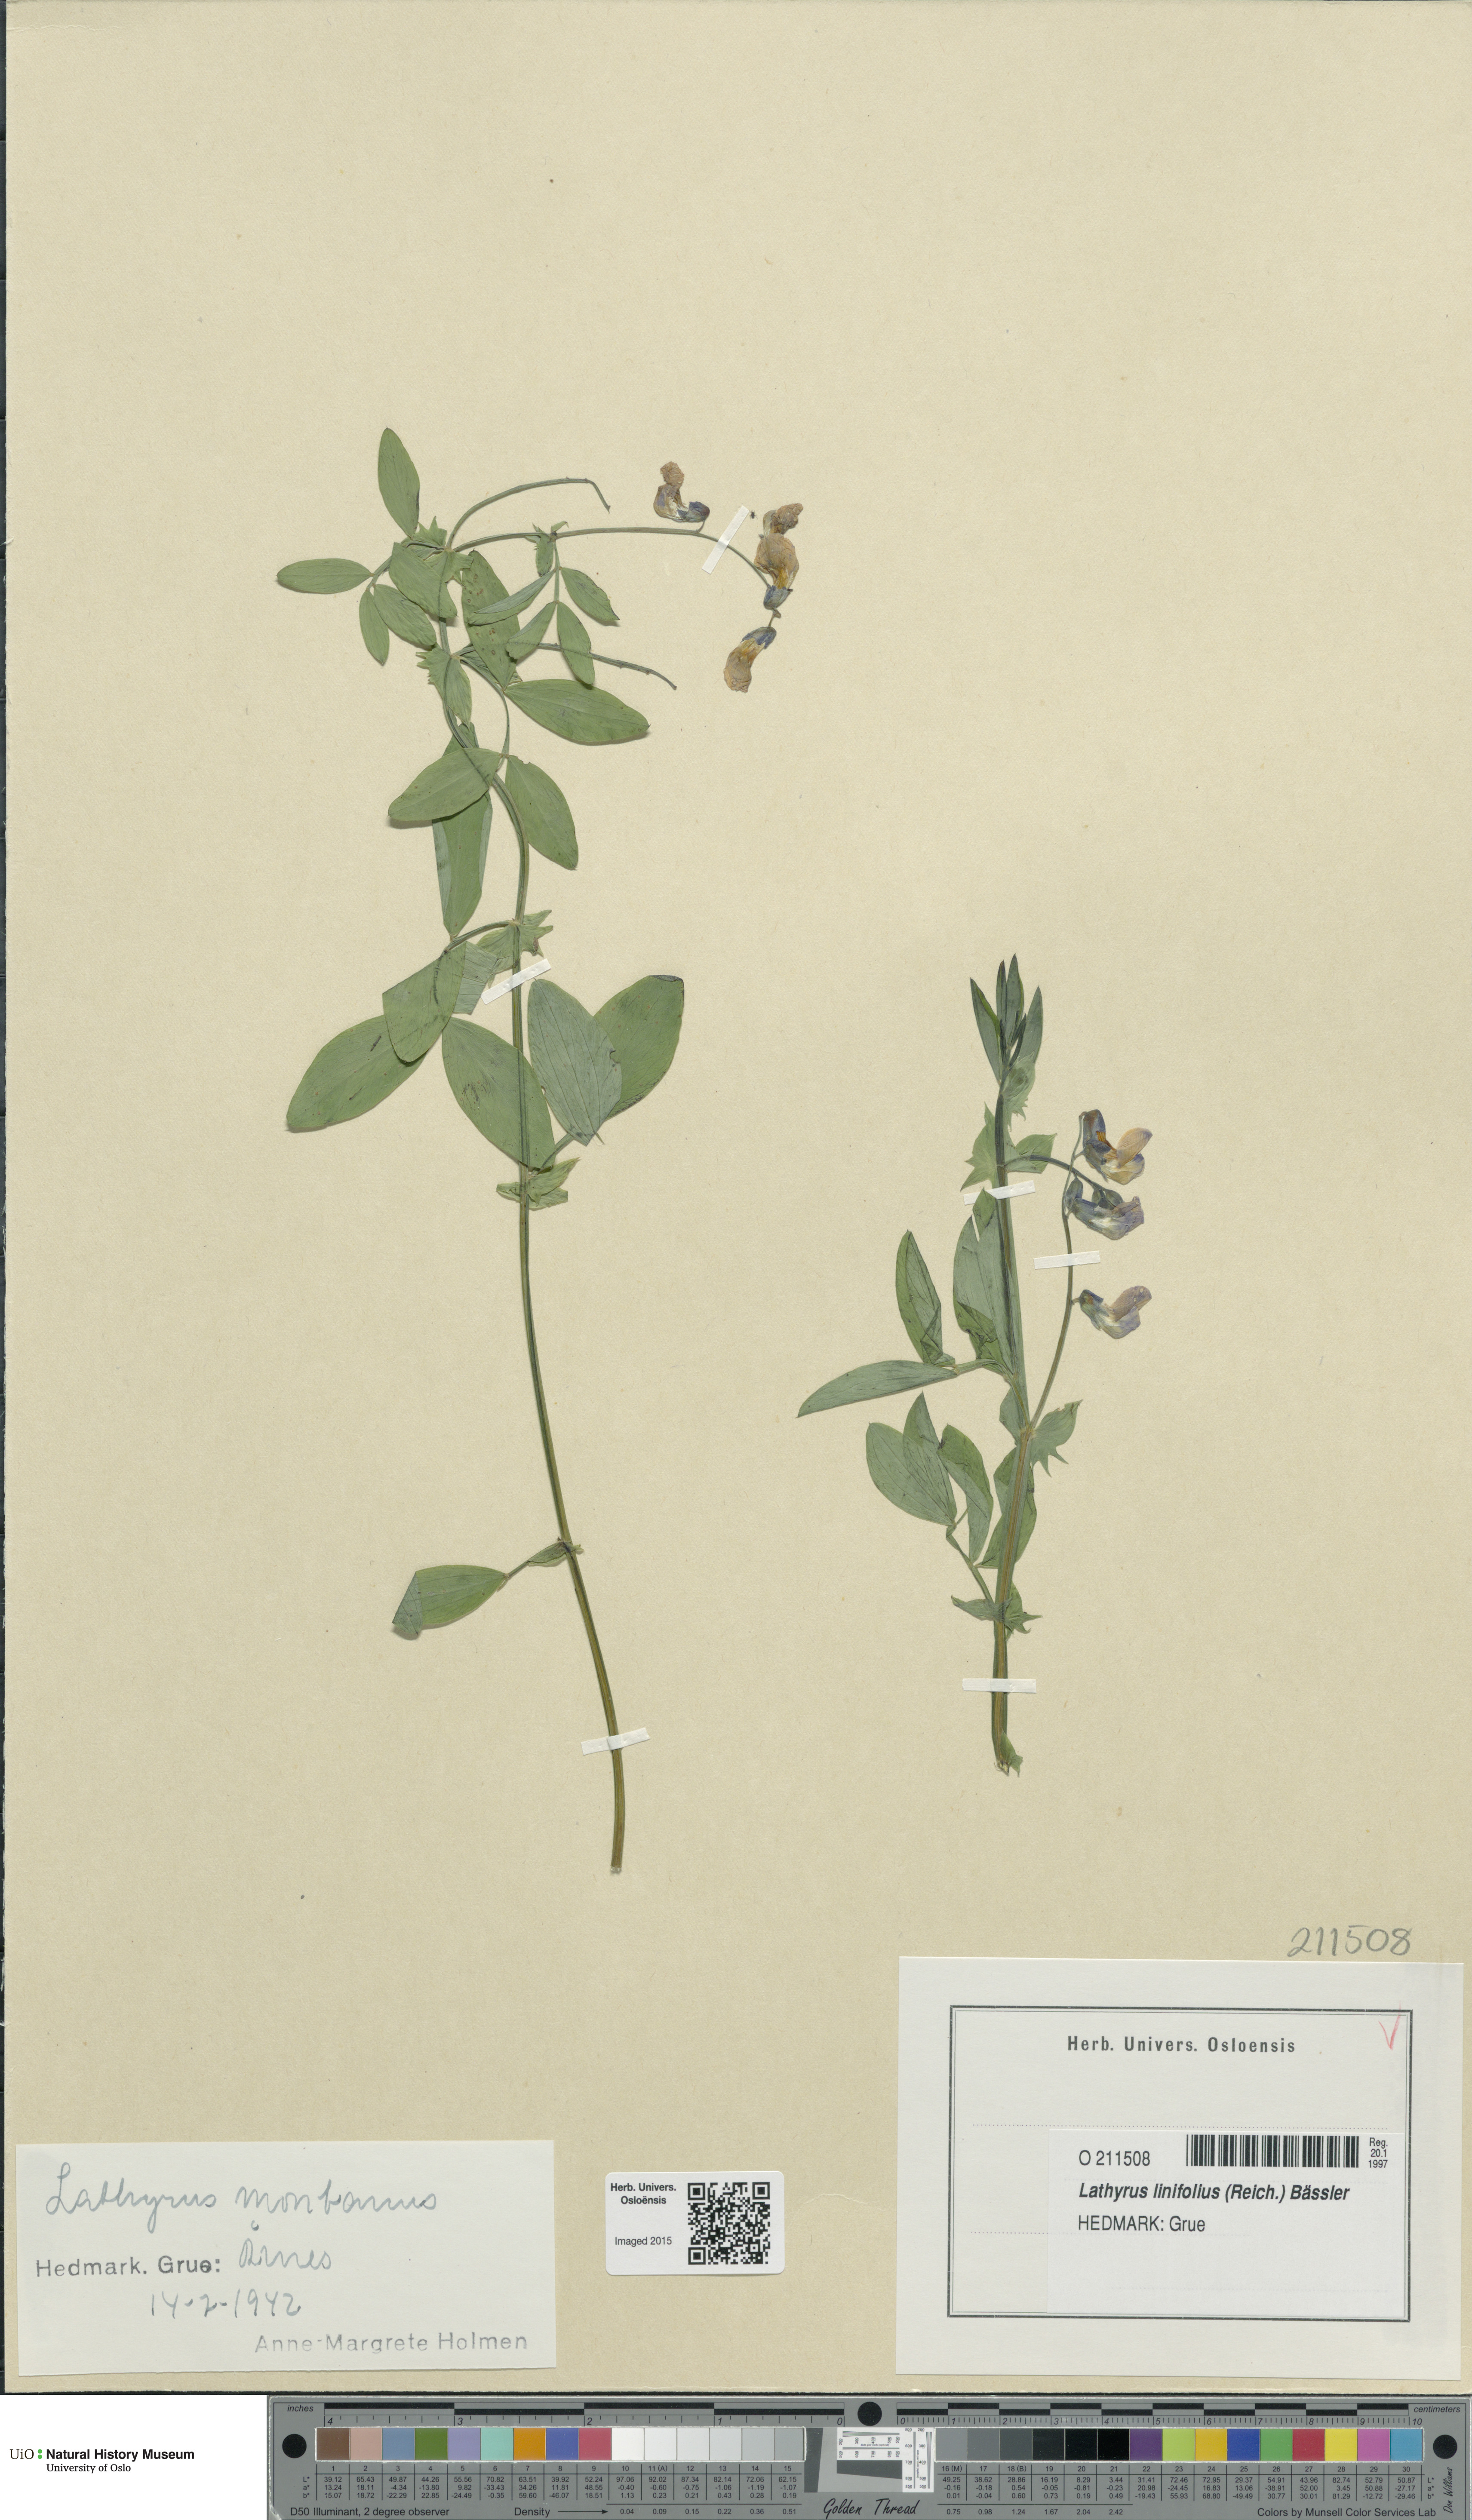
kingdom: Plantae
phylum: Tracheophyta
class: Magnoliopsida
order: Fabales
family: Fabaceae
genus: Lathyrus
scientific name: Lathyrus linifolius
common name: Bitter-vetch
